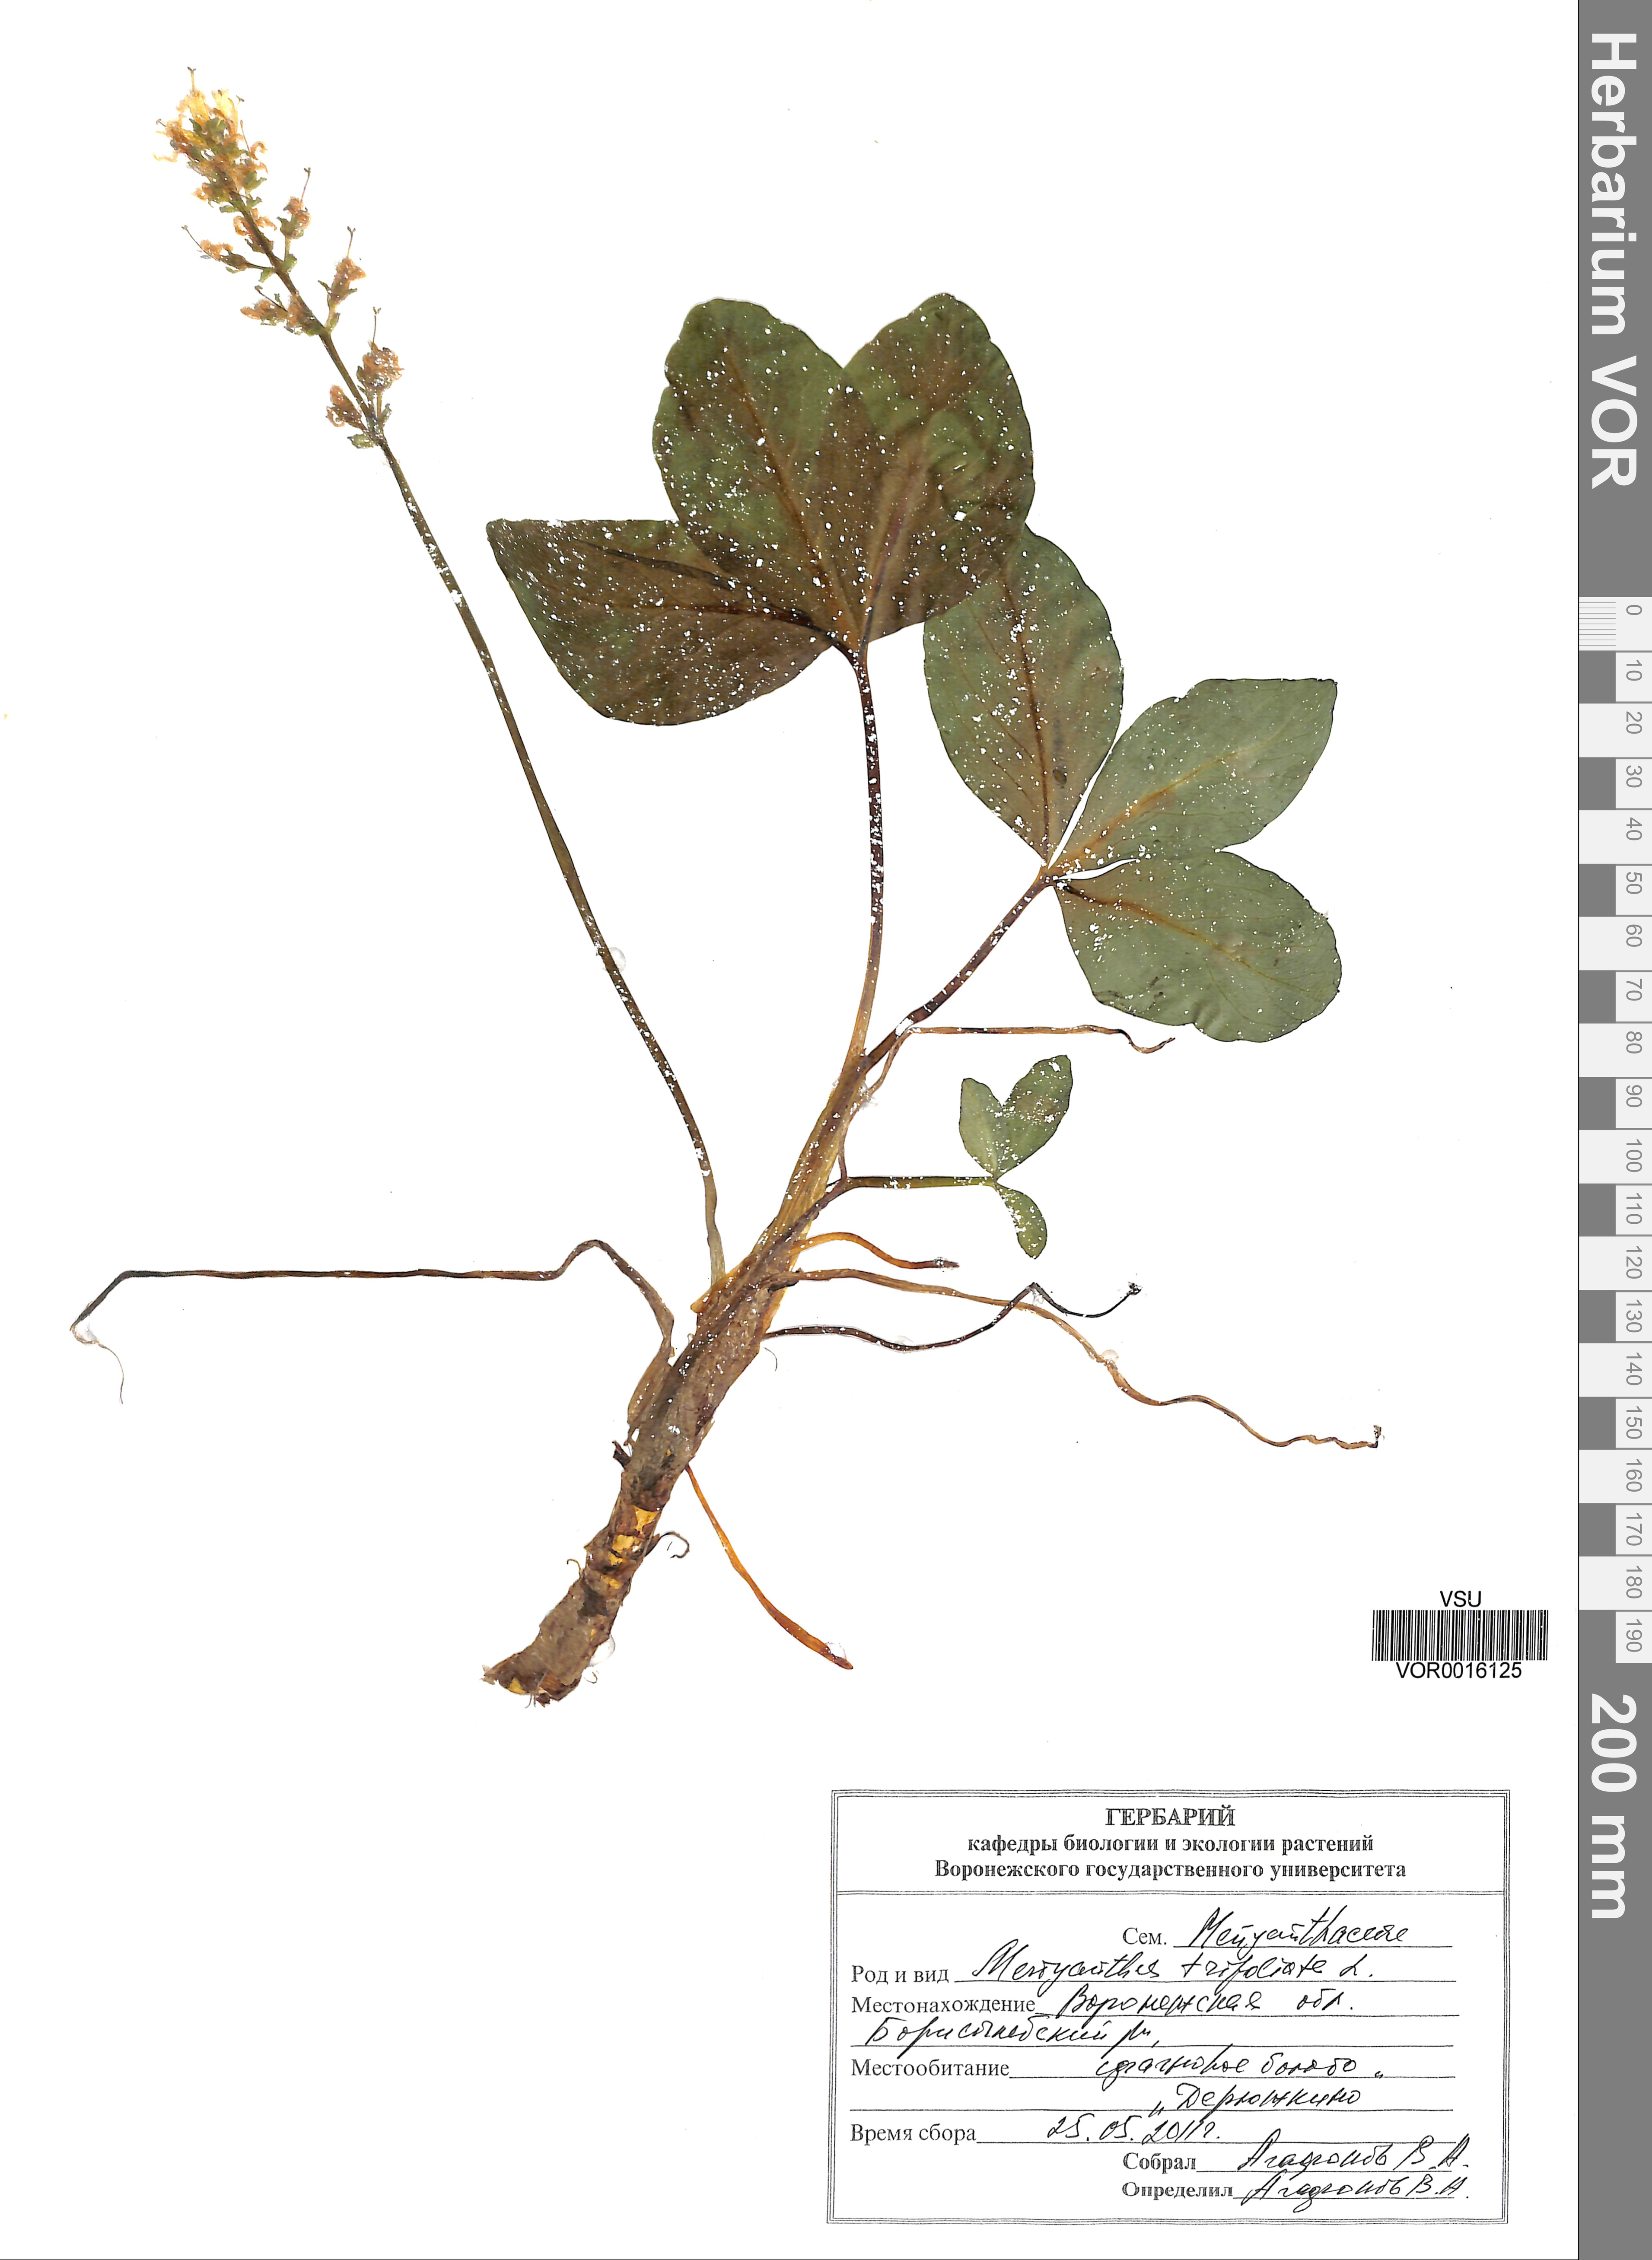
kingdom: Plantae
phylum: Tracheophyta
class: Magnoliopsida
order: Asterales
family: Menyanthaceae
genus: Menyanthes
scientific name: Menyanthes trifoliata
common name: Bogbean
